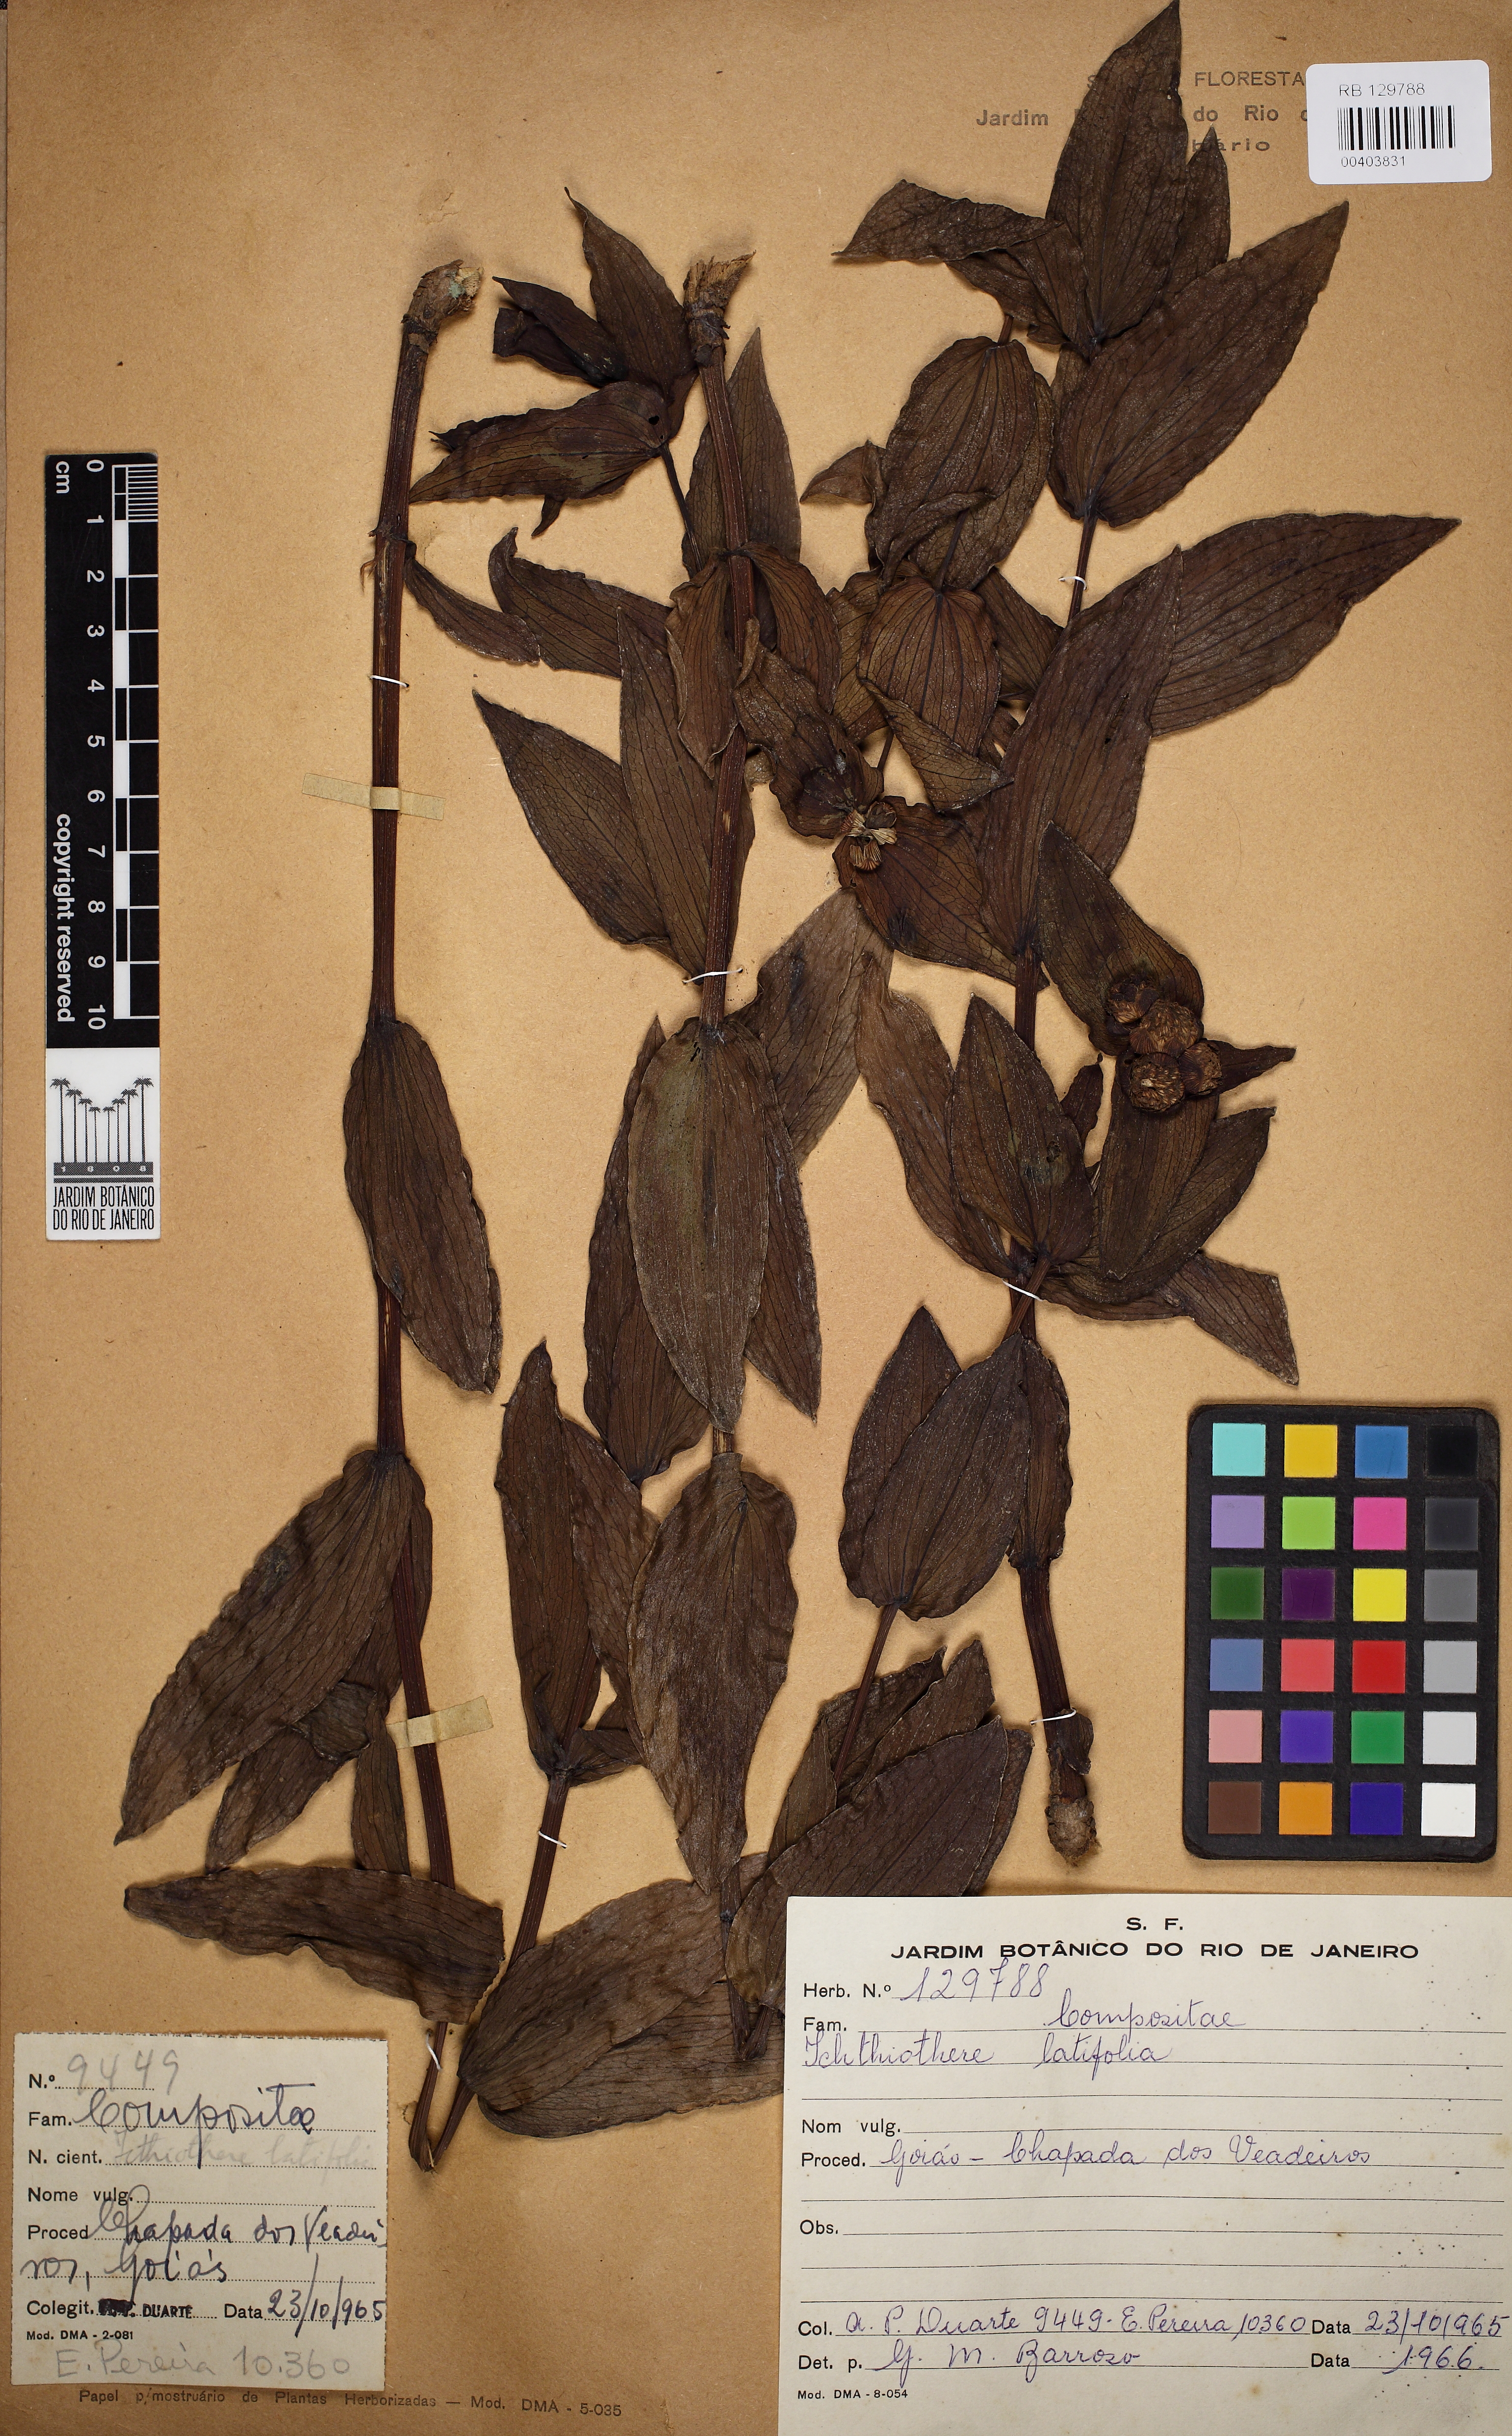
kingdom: Plantae
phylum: Tracheophyta
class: Magnoliopsida
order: Asterales
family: Asteraceae
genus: Ichthyothere
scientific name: Ichthyothere terminalis
